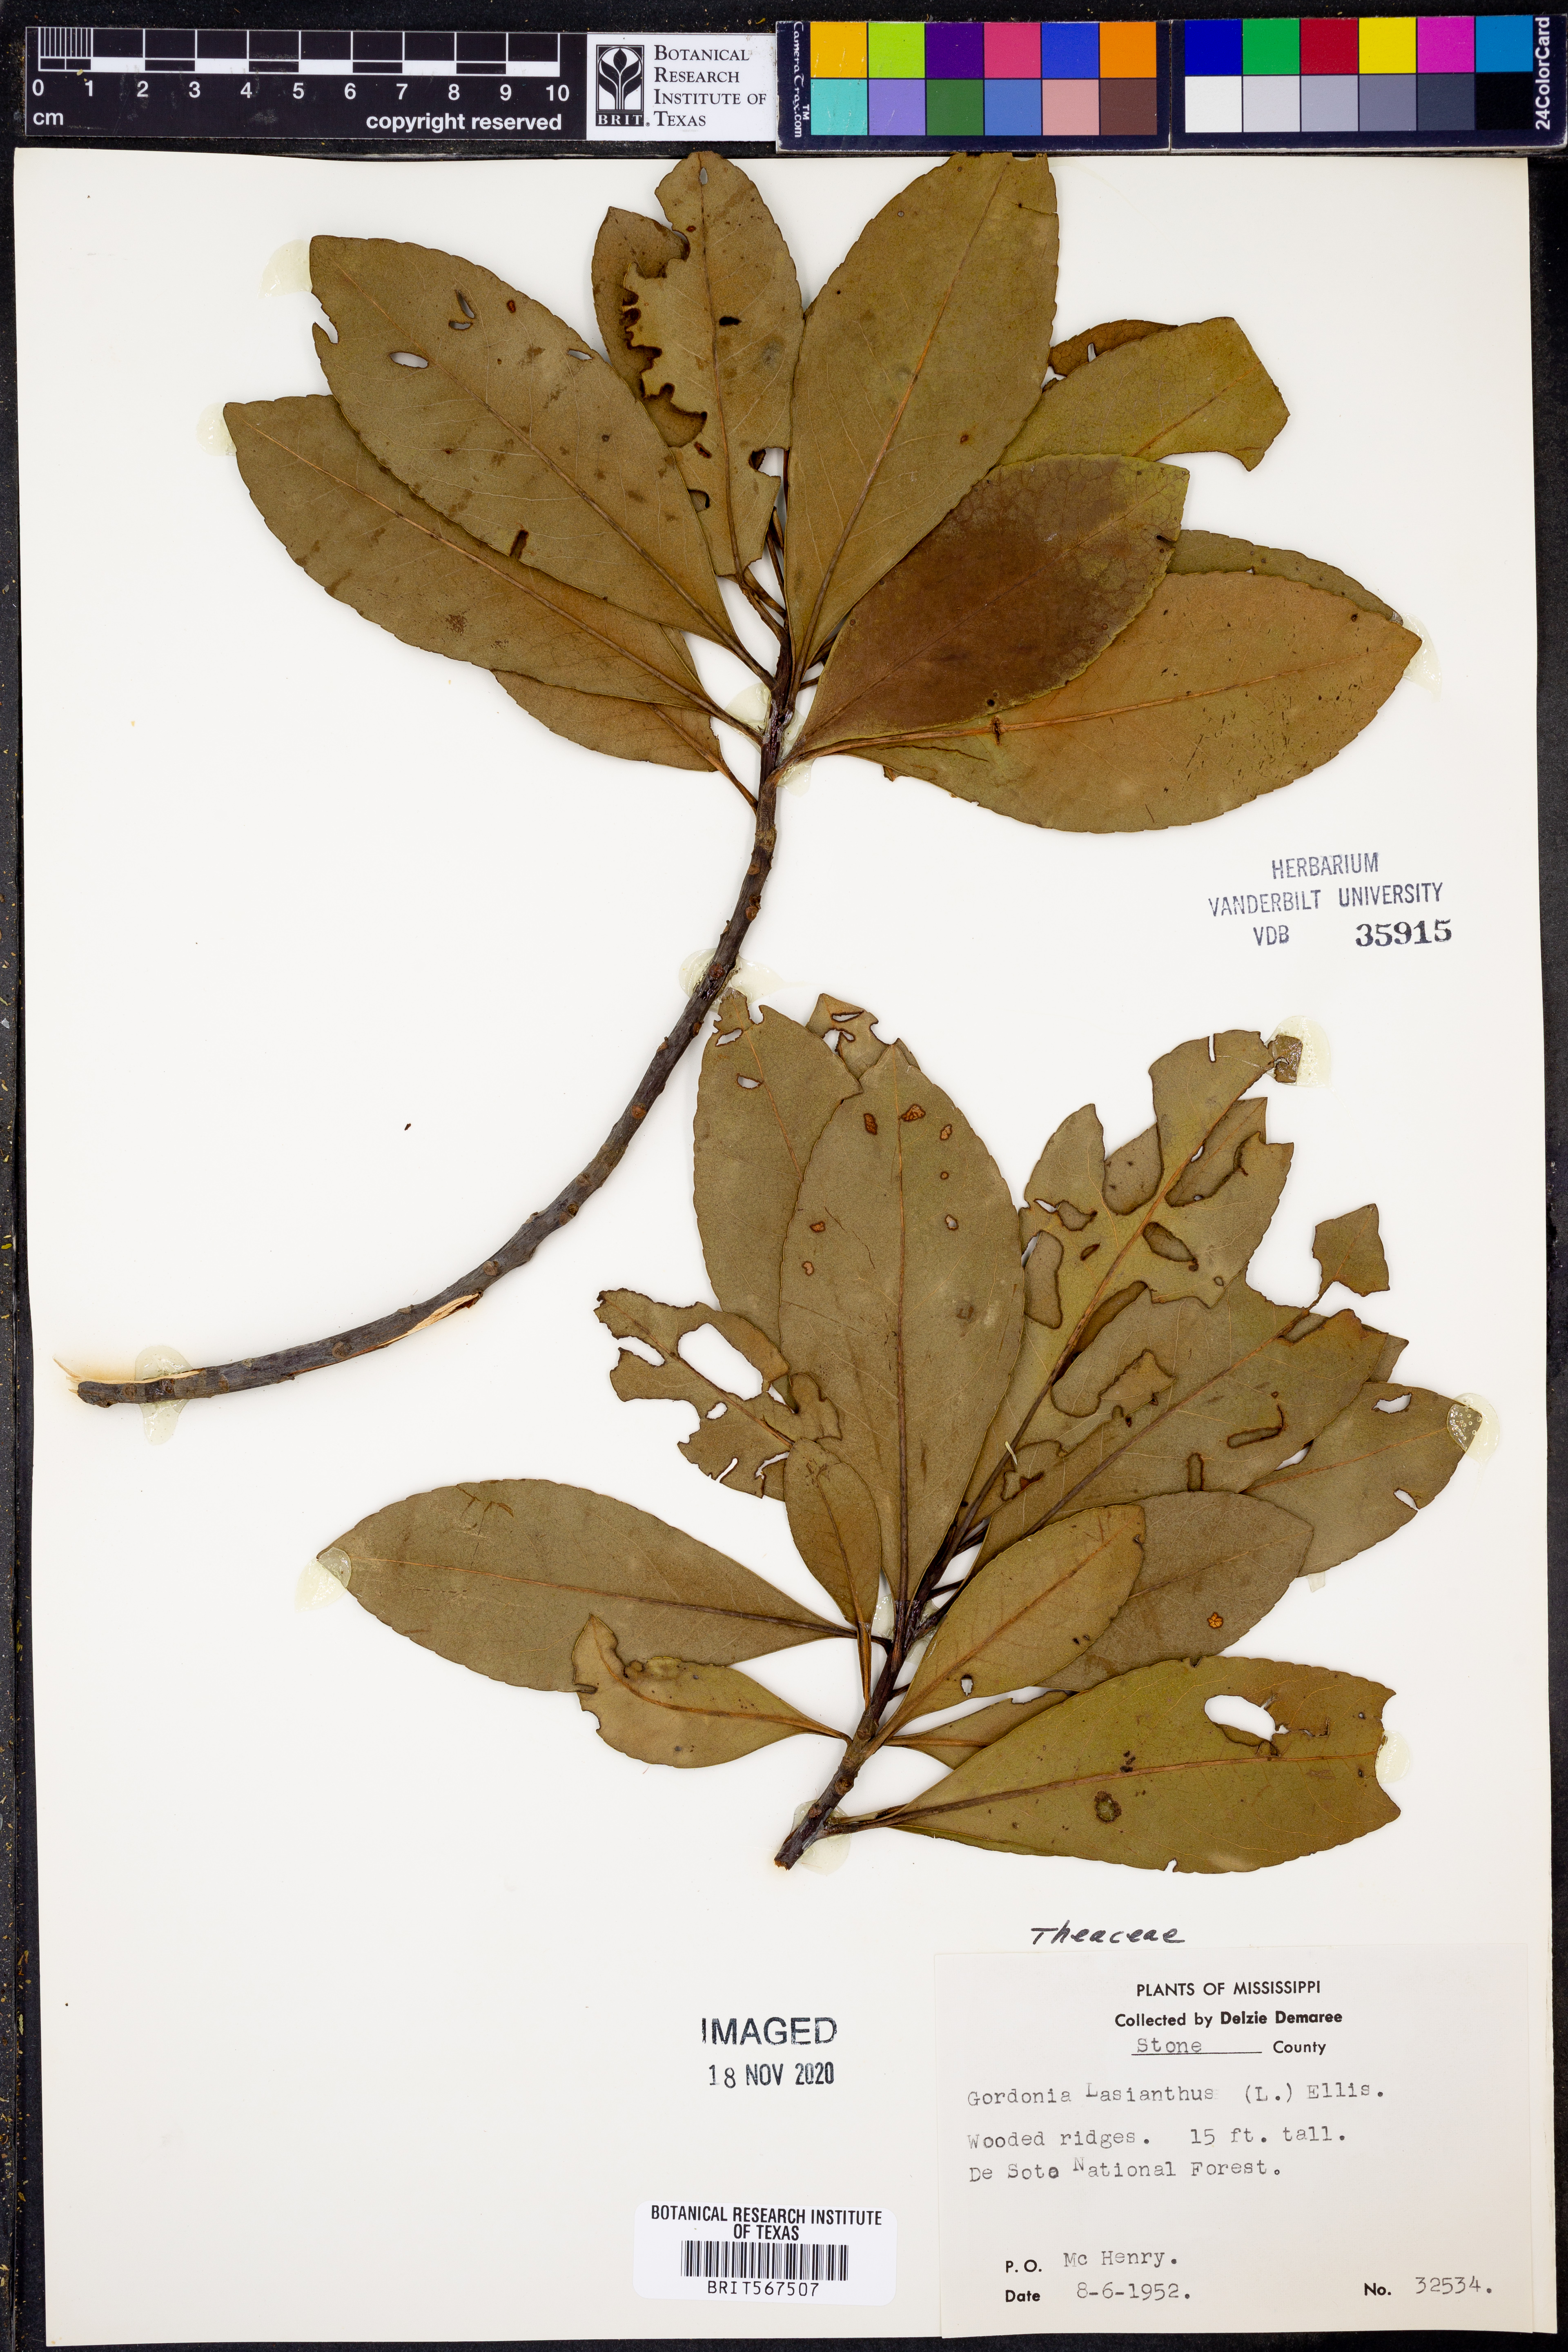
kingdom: Plantae
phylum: Tracheophyta
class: Magnoliopsida
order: Ericales
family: Theaceae
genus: Gordonia
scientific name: Gordonia lasianthus
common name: Loblolly bay
